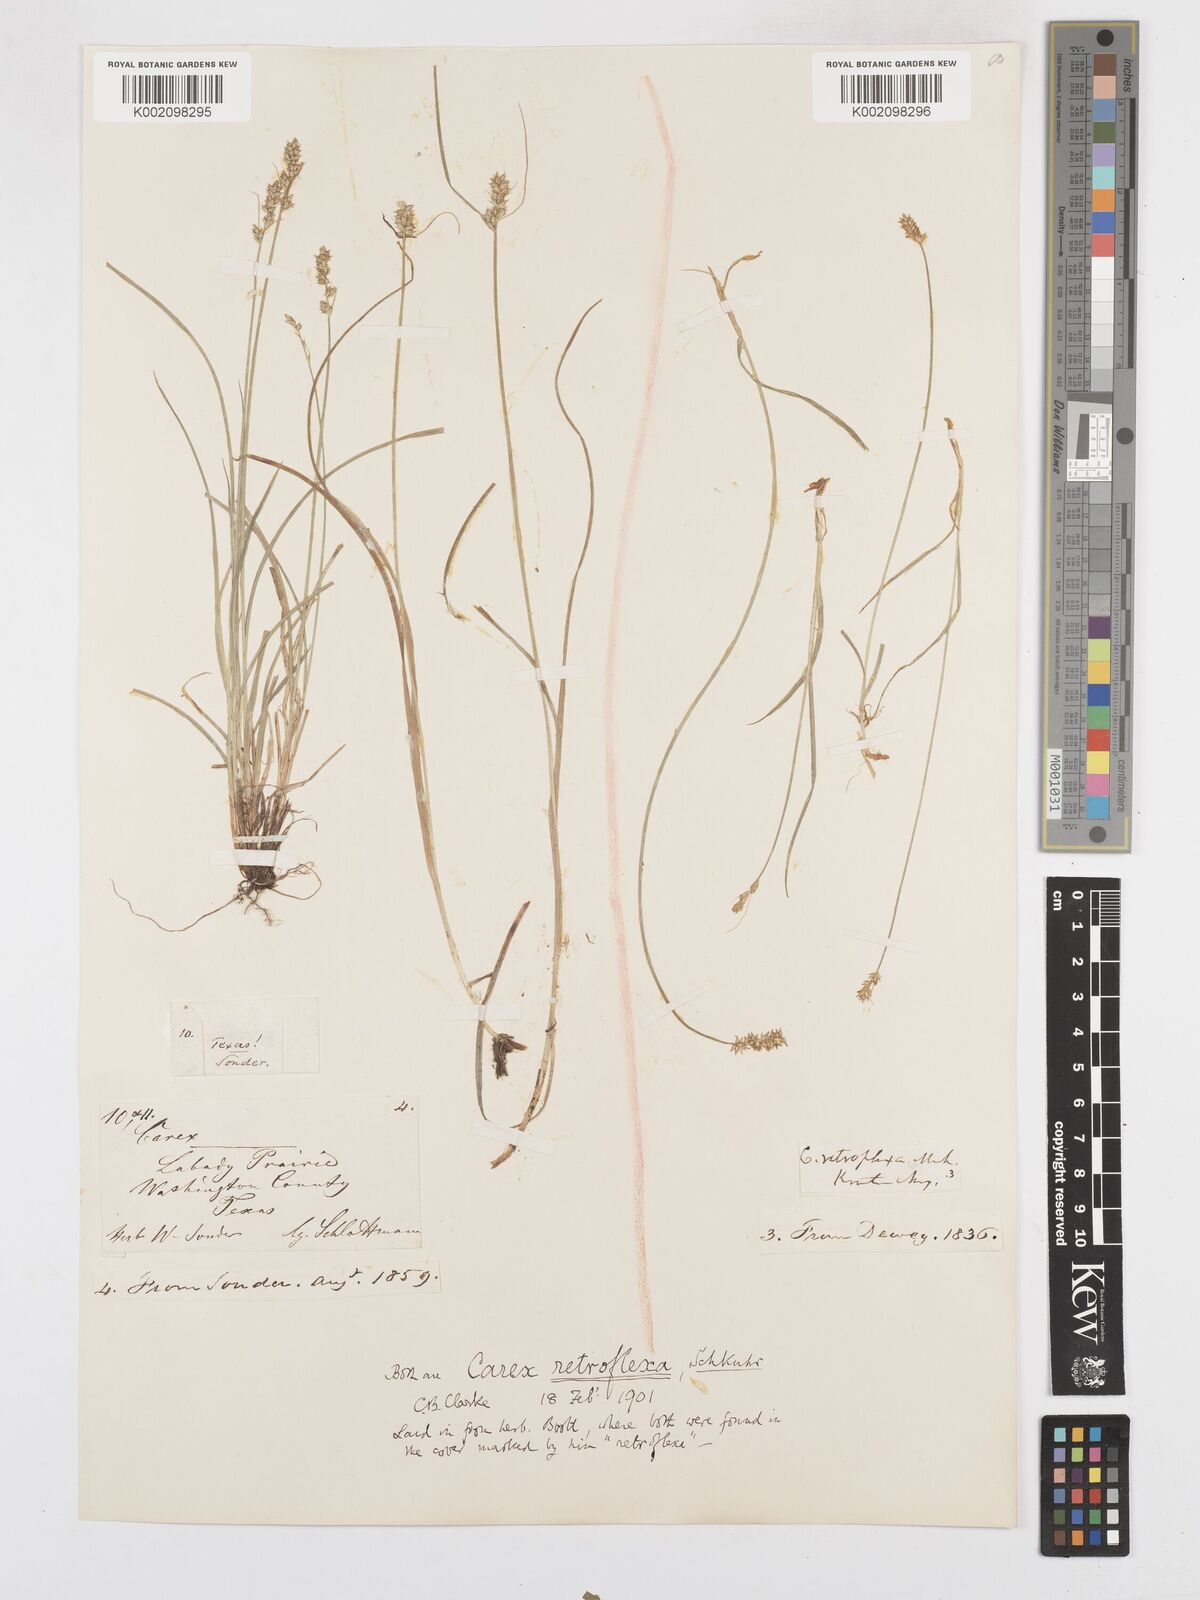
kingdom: Plantae
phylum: Tracheophyta
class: Liliopsida
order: Poales
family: Cyperaceae
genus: Carex
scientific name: Carex retroflexa
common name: Reflexed sedge
